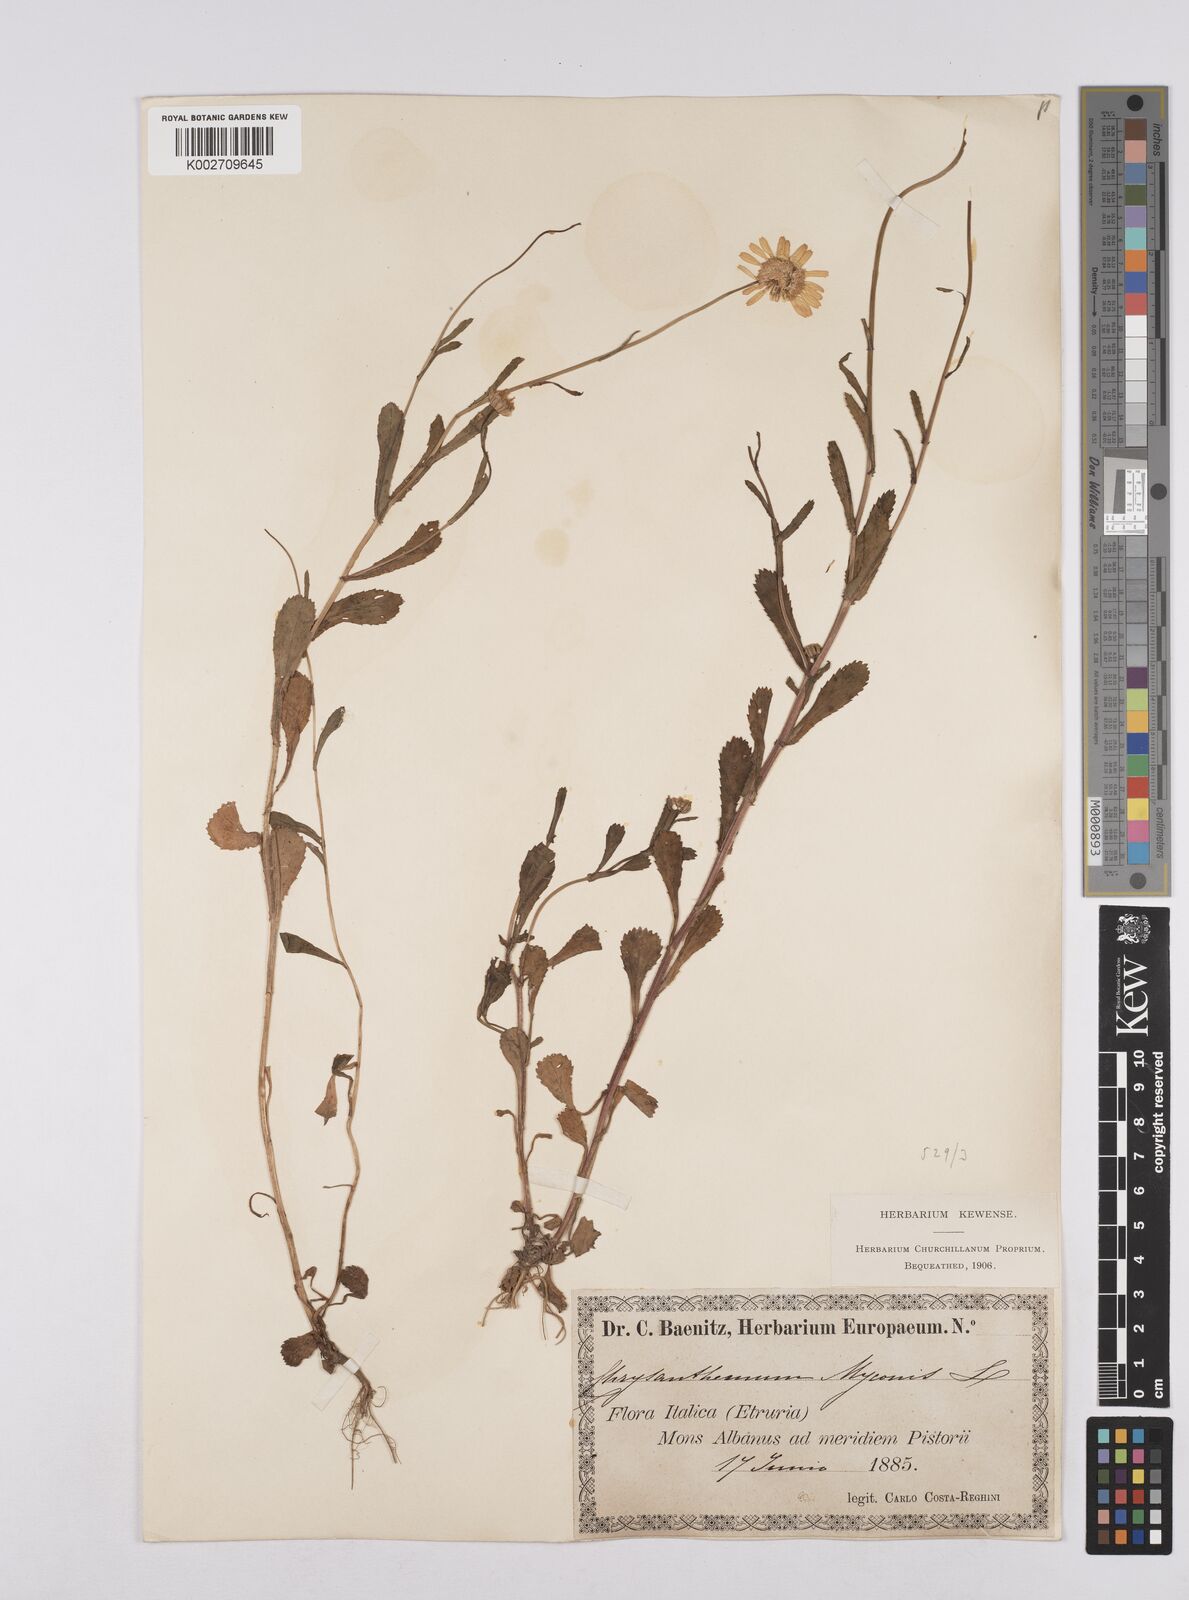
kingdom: Plantae
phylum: Tracheophyta
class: Magnoliopsida
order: Asterales
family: Asteraceae
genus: Coleostephus
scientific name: Coleostephus myconis
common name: Mediterranean marigold
